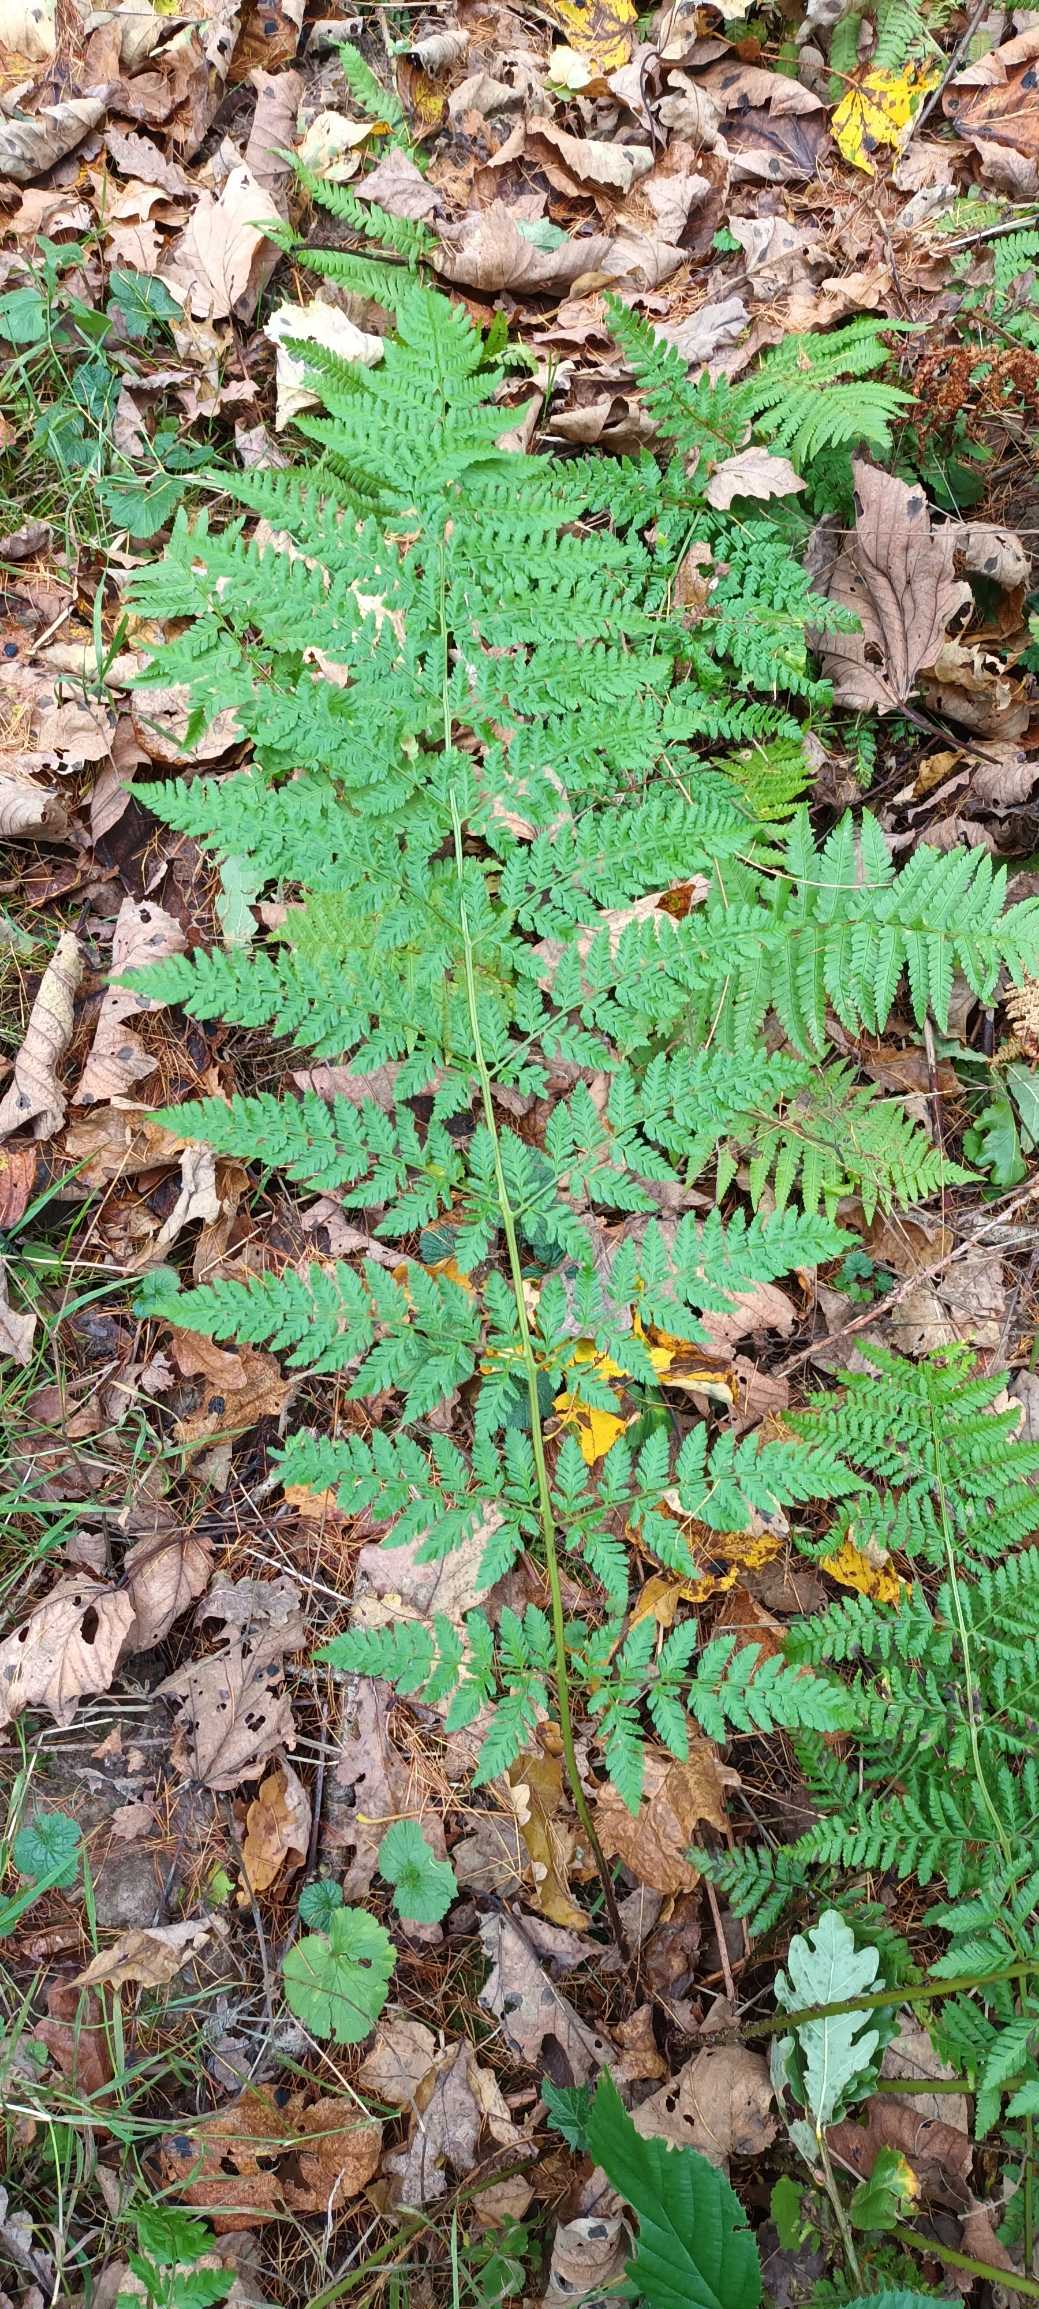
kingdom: Plantae
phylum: Tracheophyta
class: Polypodiopsida
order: Polypodiales
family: Dryopteridaceae
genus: Dryopteris
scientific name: Dryopteris dilatata
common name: Bredbladet mangeløv
